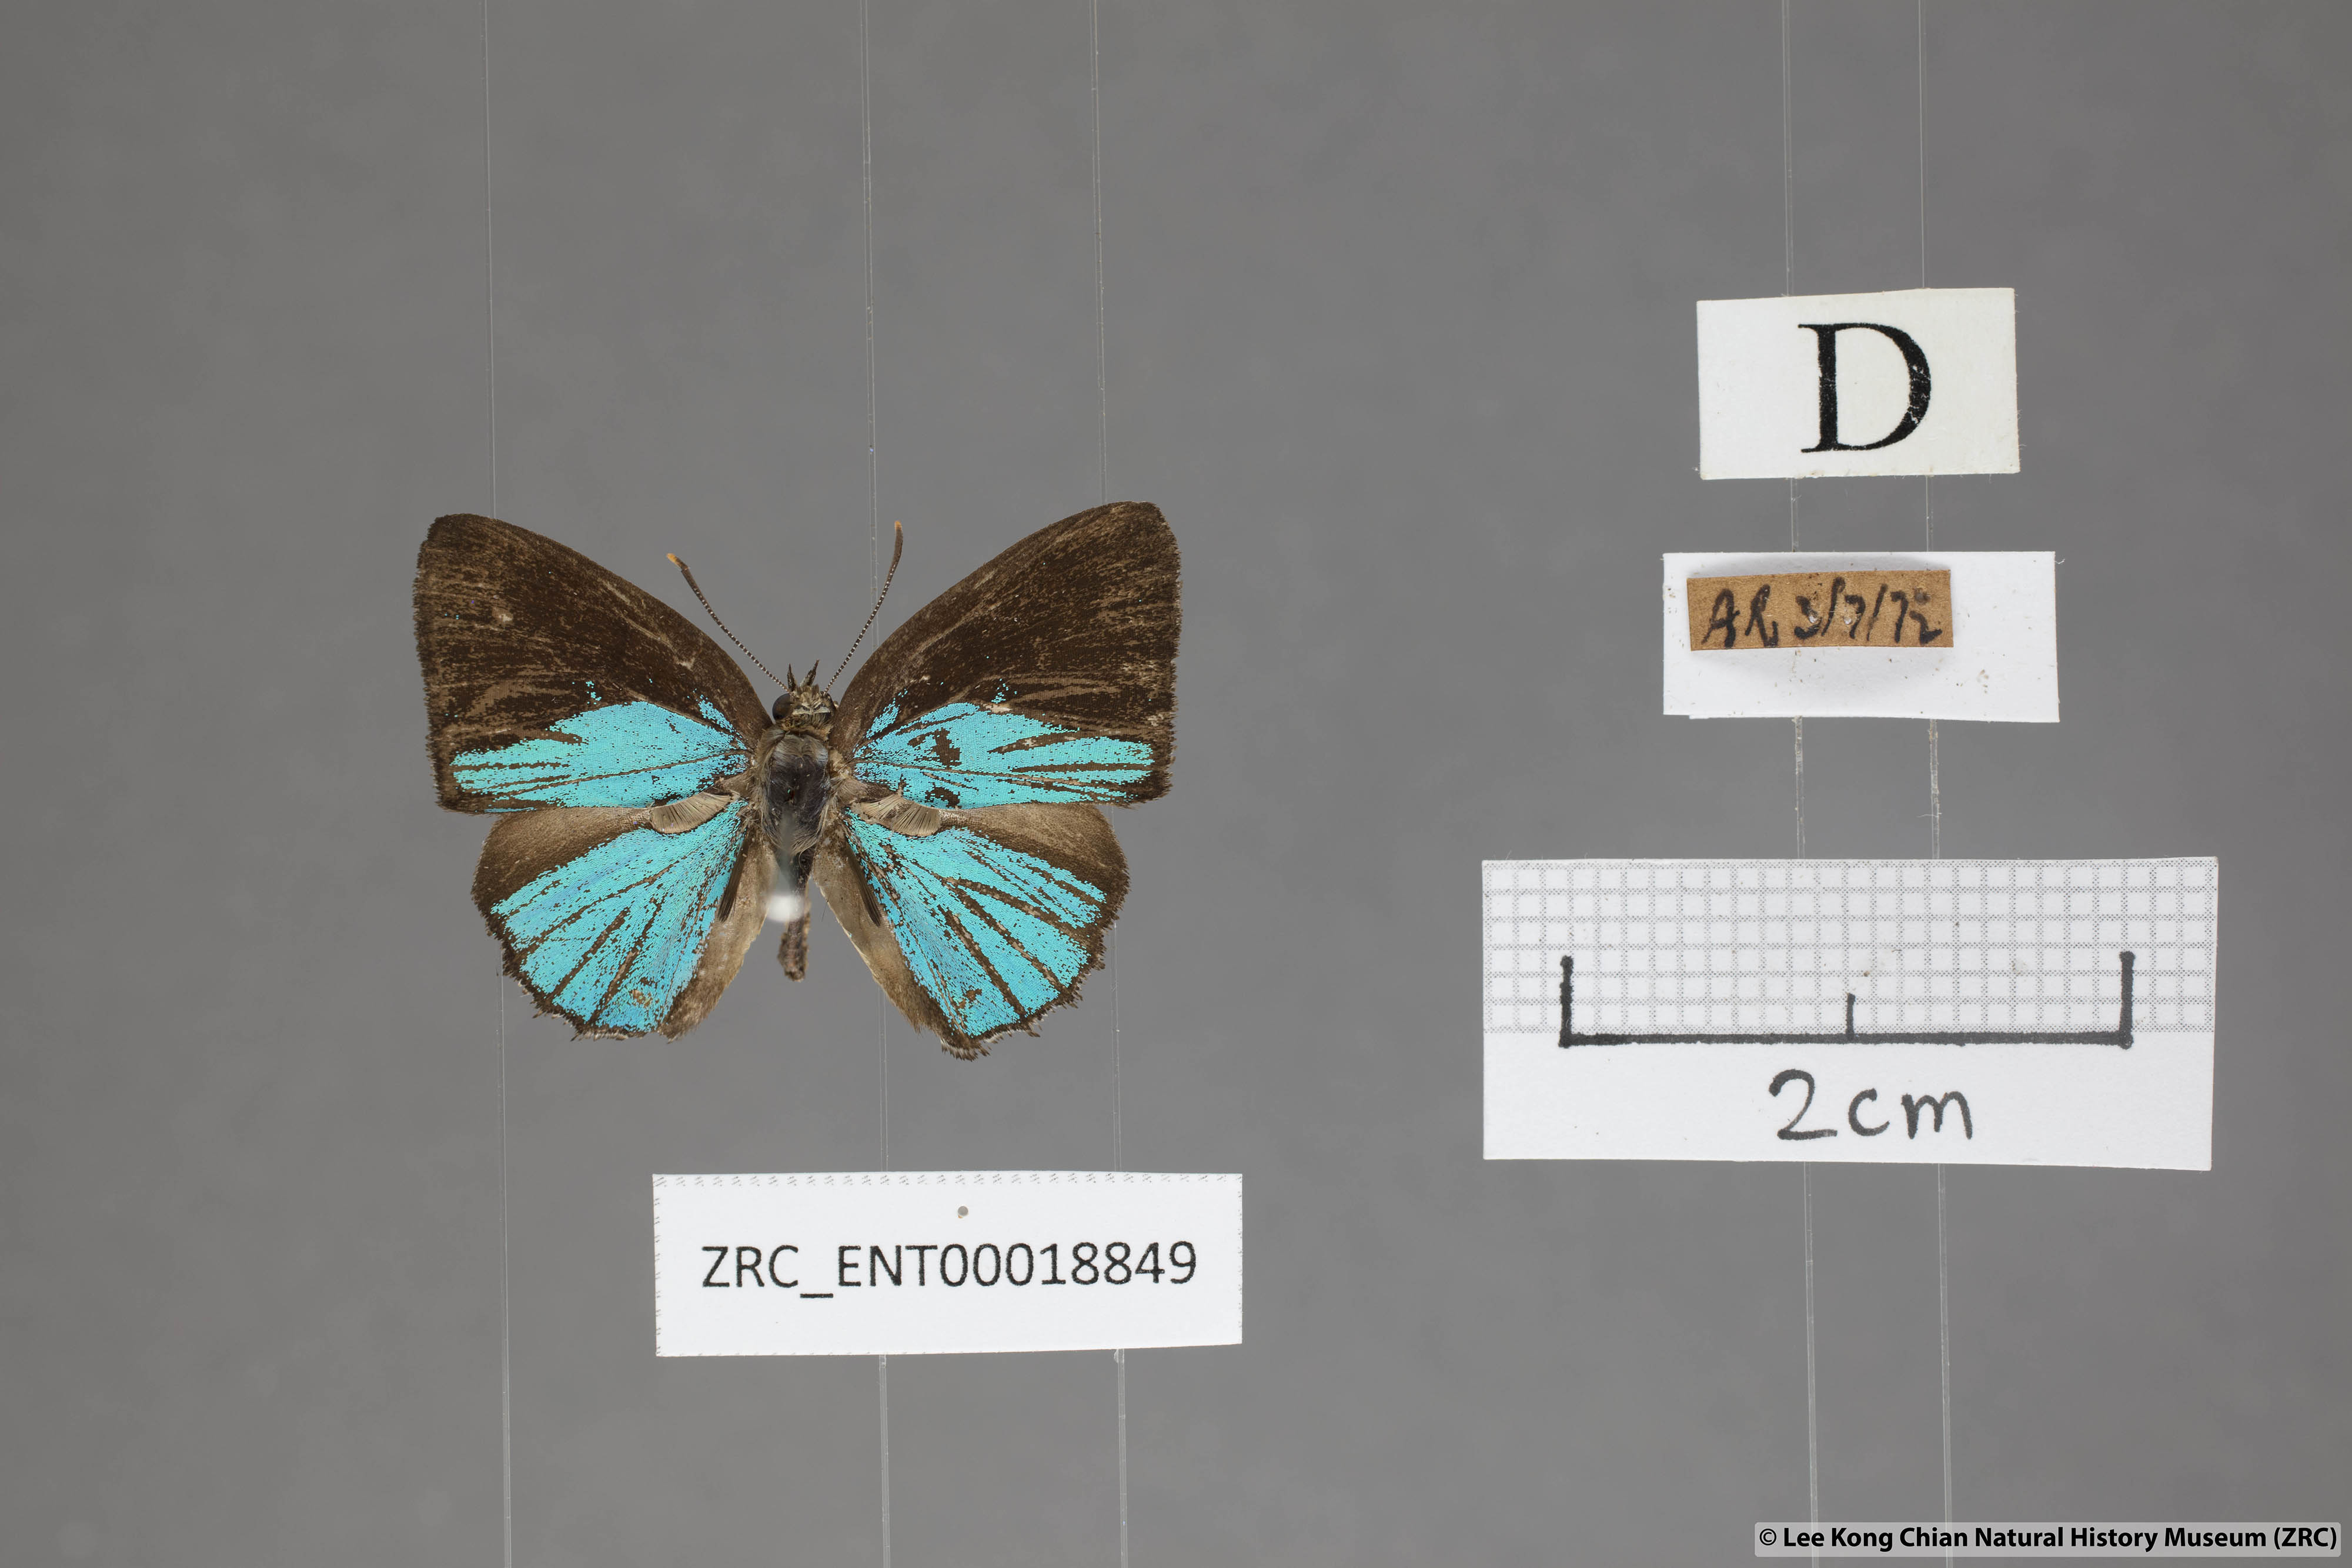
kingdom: Animalia
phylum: Arthropoda
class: Insecta
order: Lepidoptera
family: Lycaenidae
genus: Poritia
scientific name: Poritia sumatrae
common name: Sumatran gem
